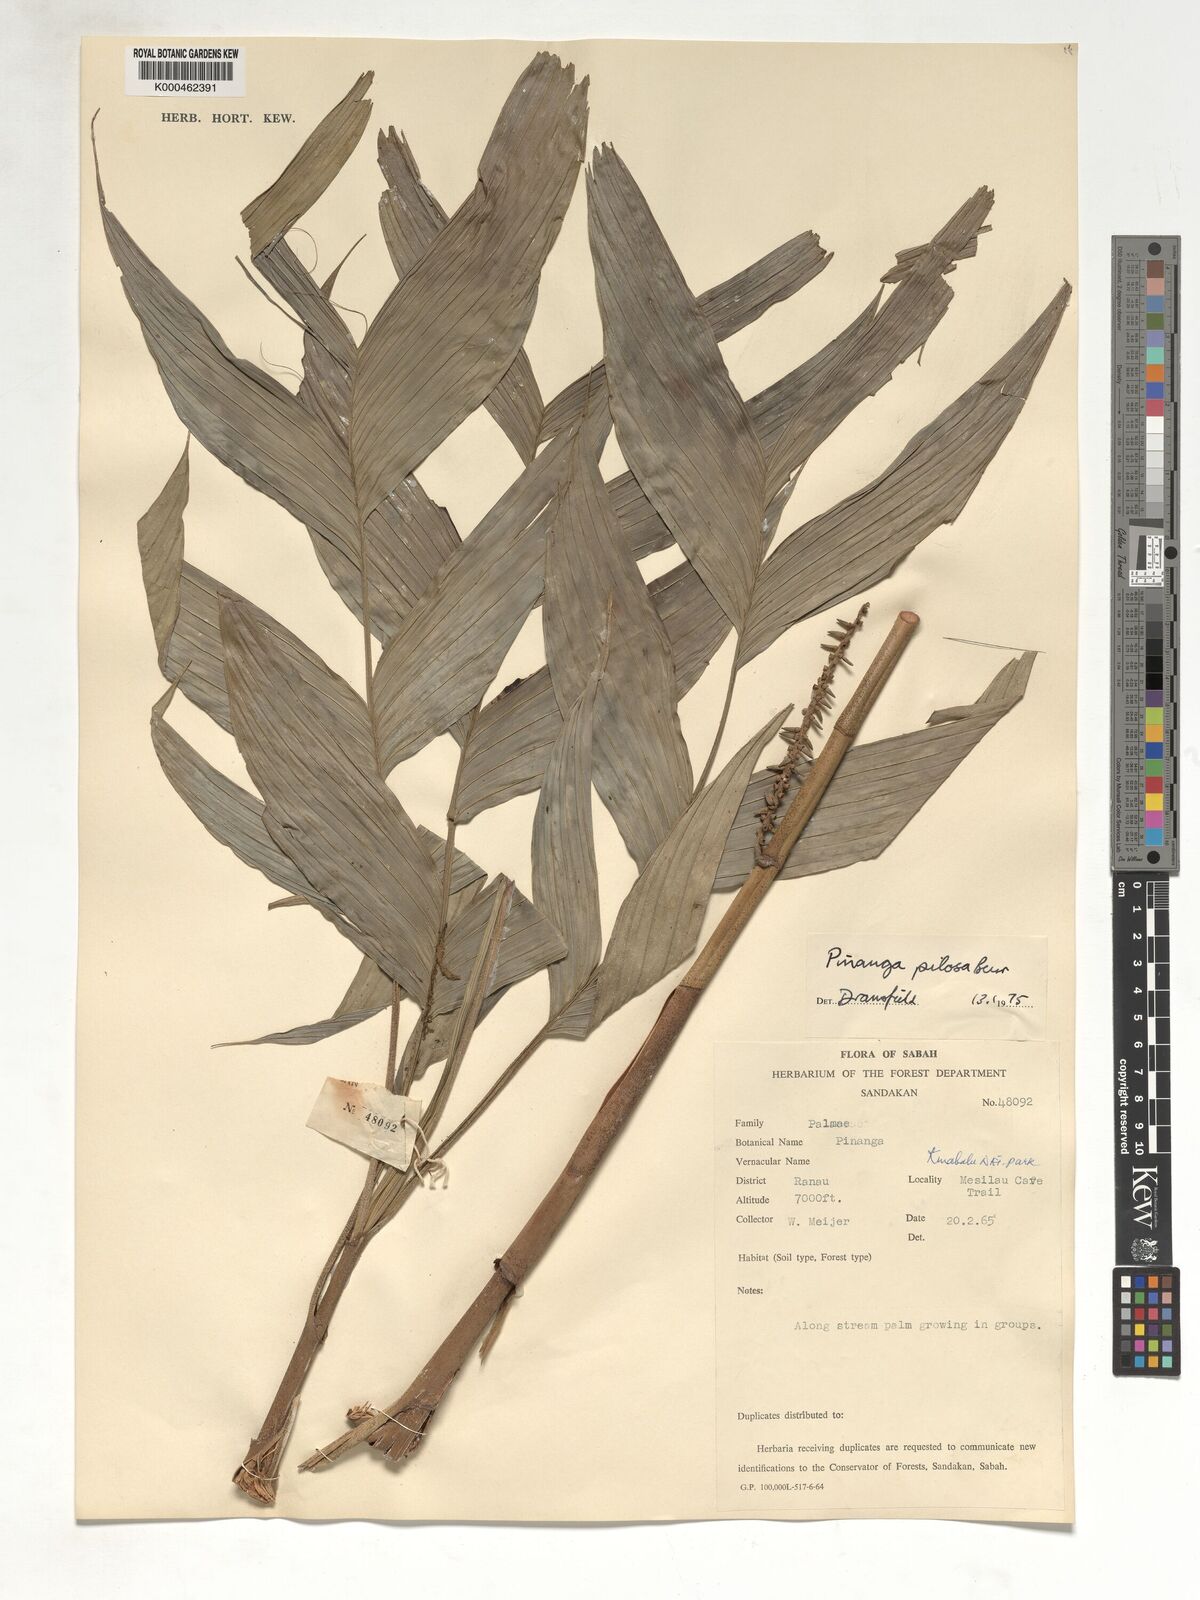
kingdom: Plantae
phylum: Tracheophyta
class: Liliopsida
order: Arecales
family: Arecaceae
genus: Pinanga
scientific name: Pinanga pilosa
